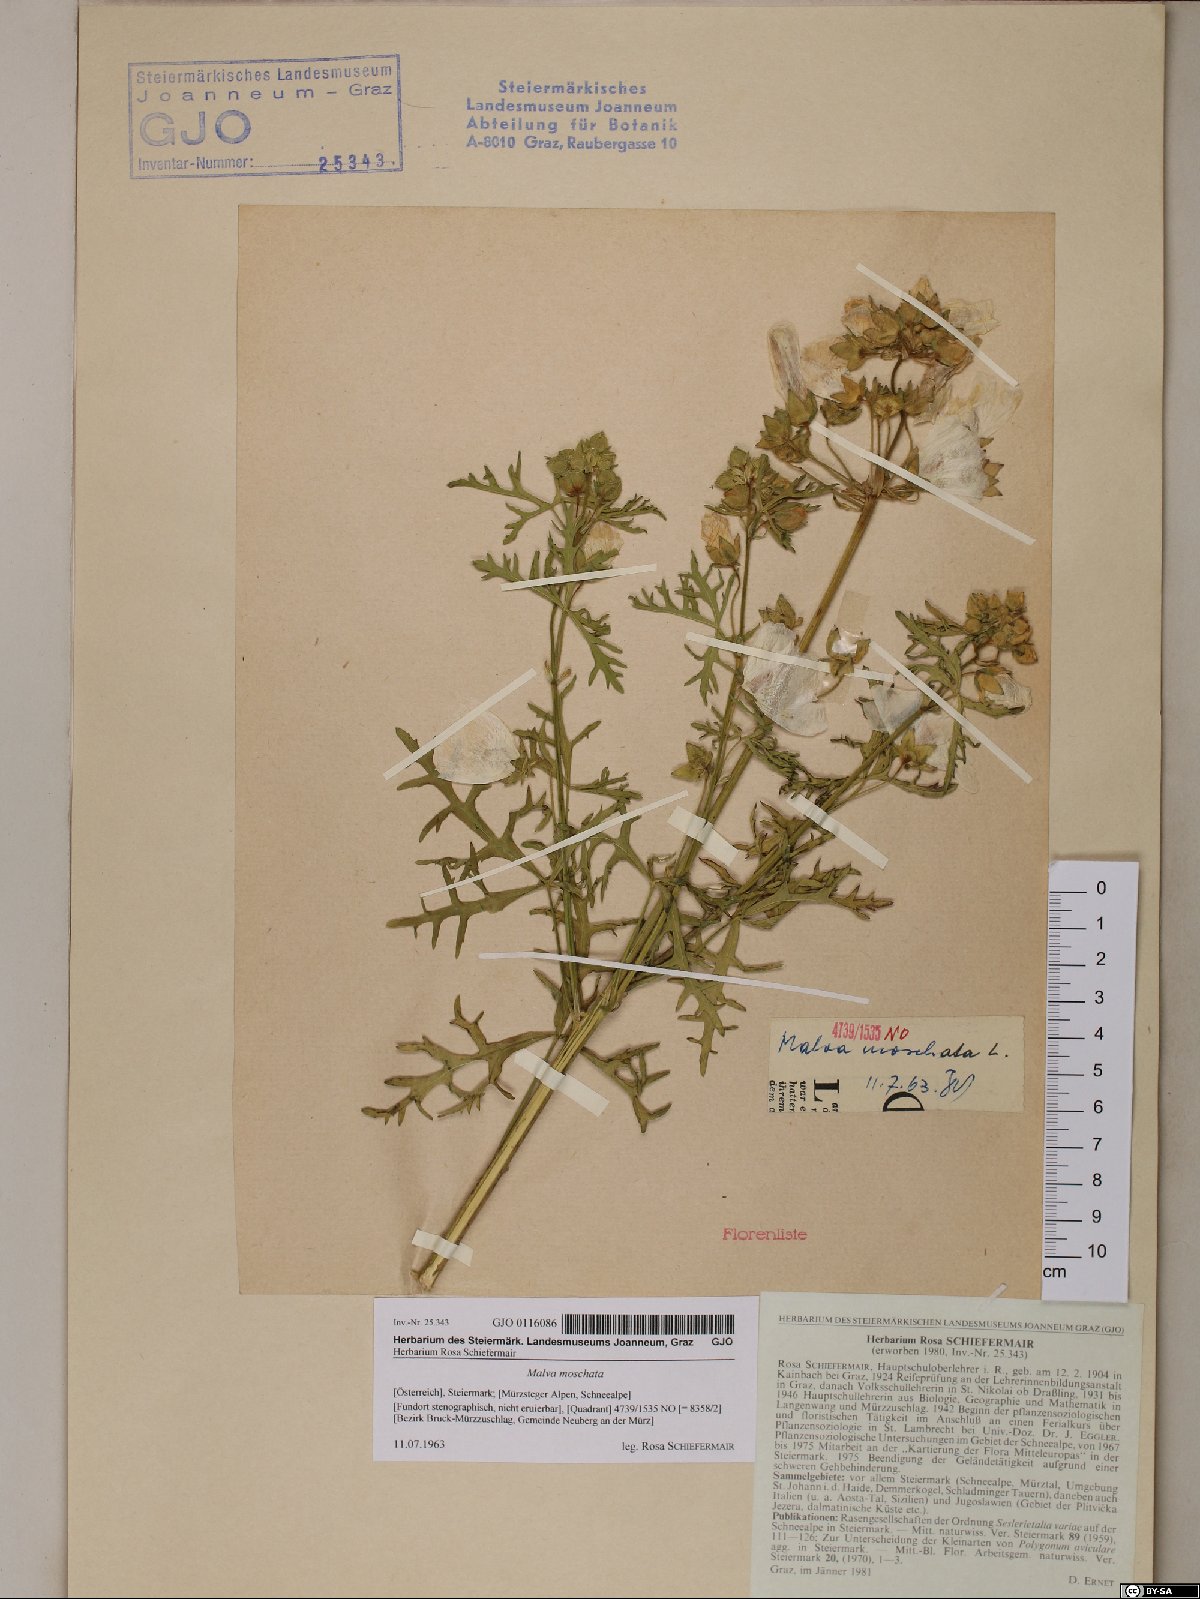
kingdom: Plantae
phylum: Tracheophyta
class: Magnoliopsida
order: Malvales
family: Malvaceae
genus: Malva
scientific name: Malva moschata
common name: Musk mallow
